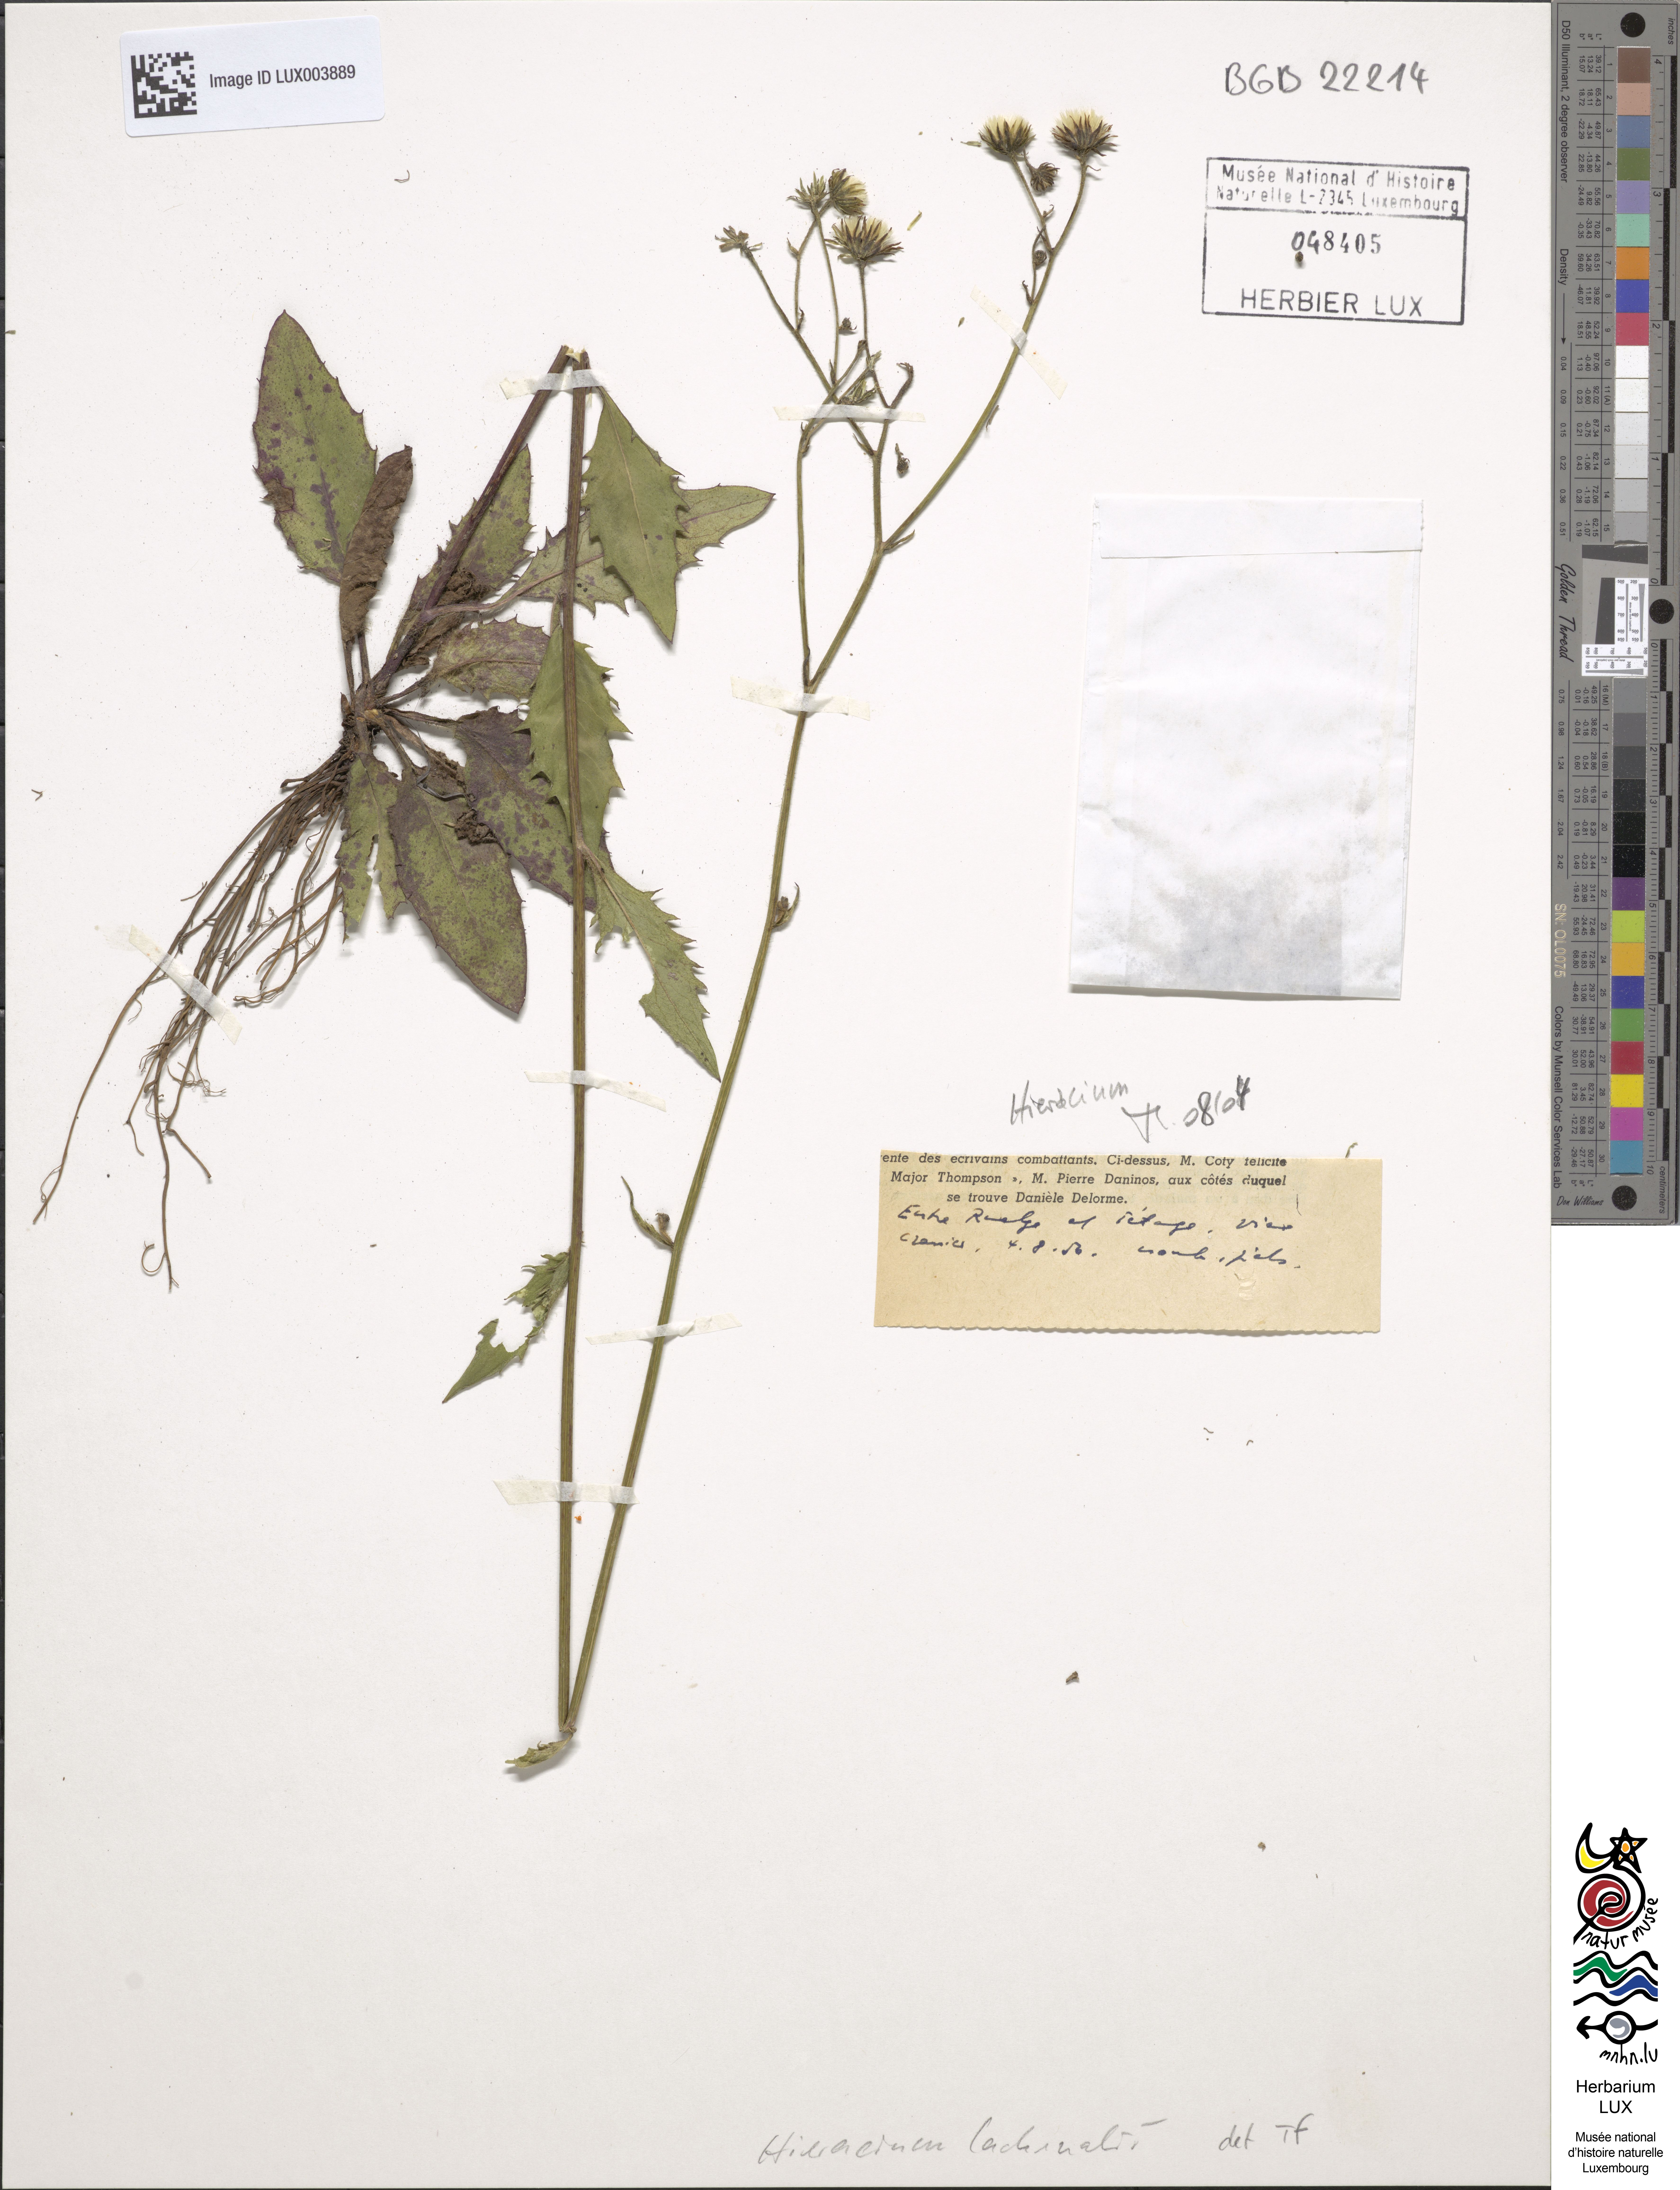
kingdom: Plantae
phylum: Tracheophyta
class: Magnoliopsida
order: Asterales
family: Asteraceae
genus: Hieracium
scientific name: Hieracium lachenalii
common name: Common hawkweed
